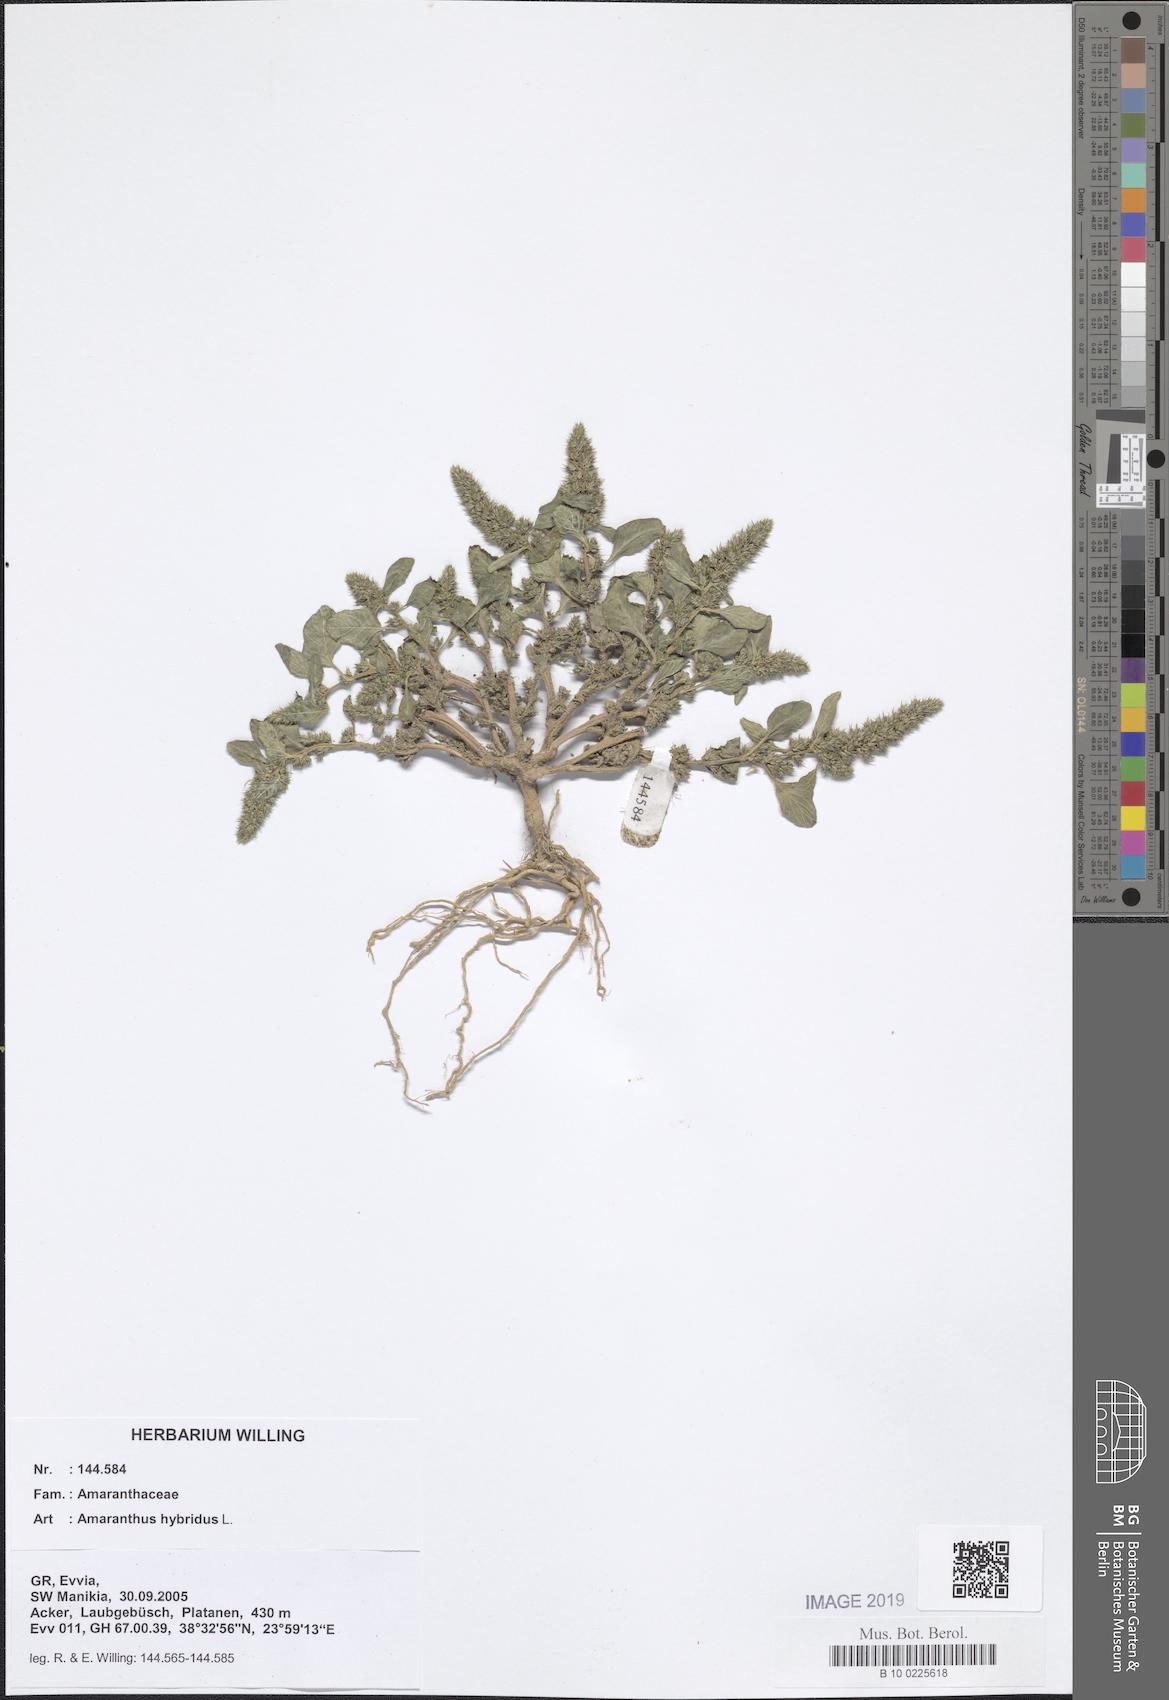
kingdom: Plantae
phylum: Tracheophyta
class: Magnoliopsida
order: Caryophyllales
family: Amaranthaceae
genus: Amaranthus
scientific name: Amaranthus hybridus
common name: Green amaranth
